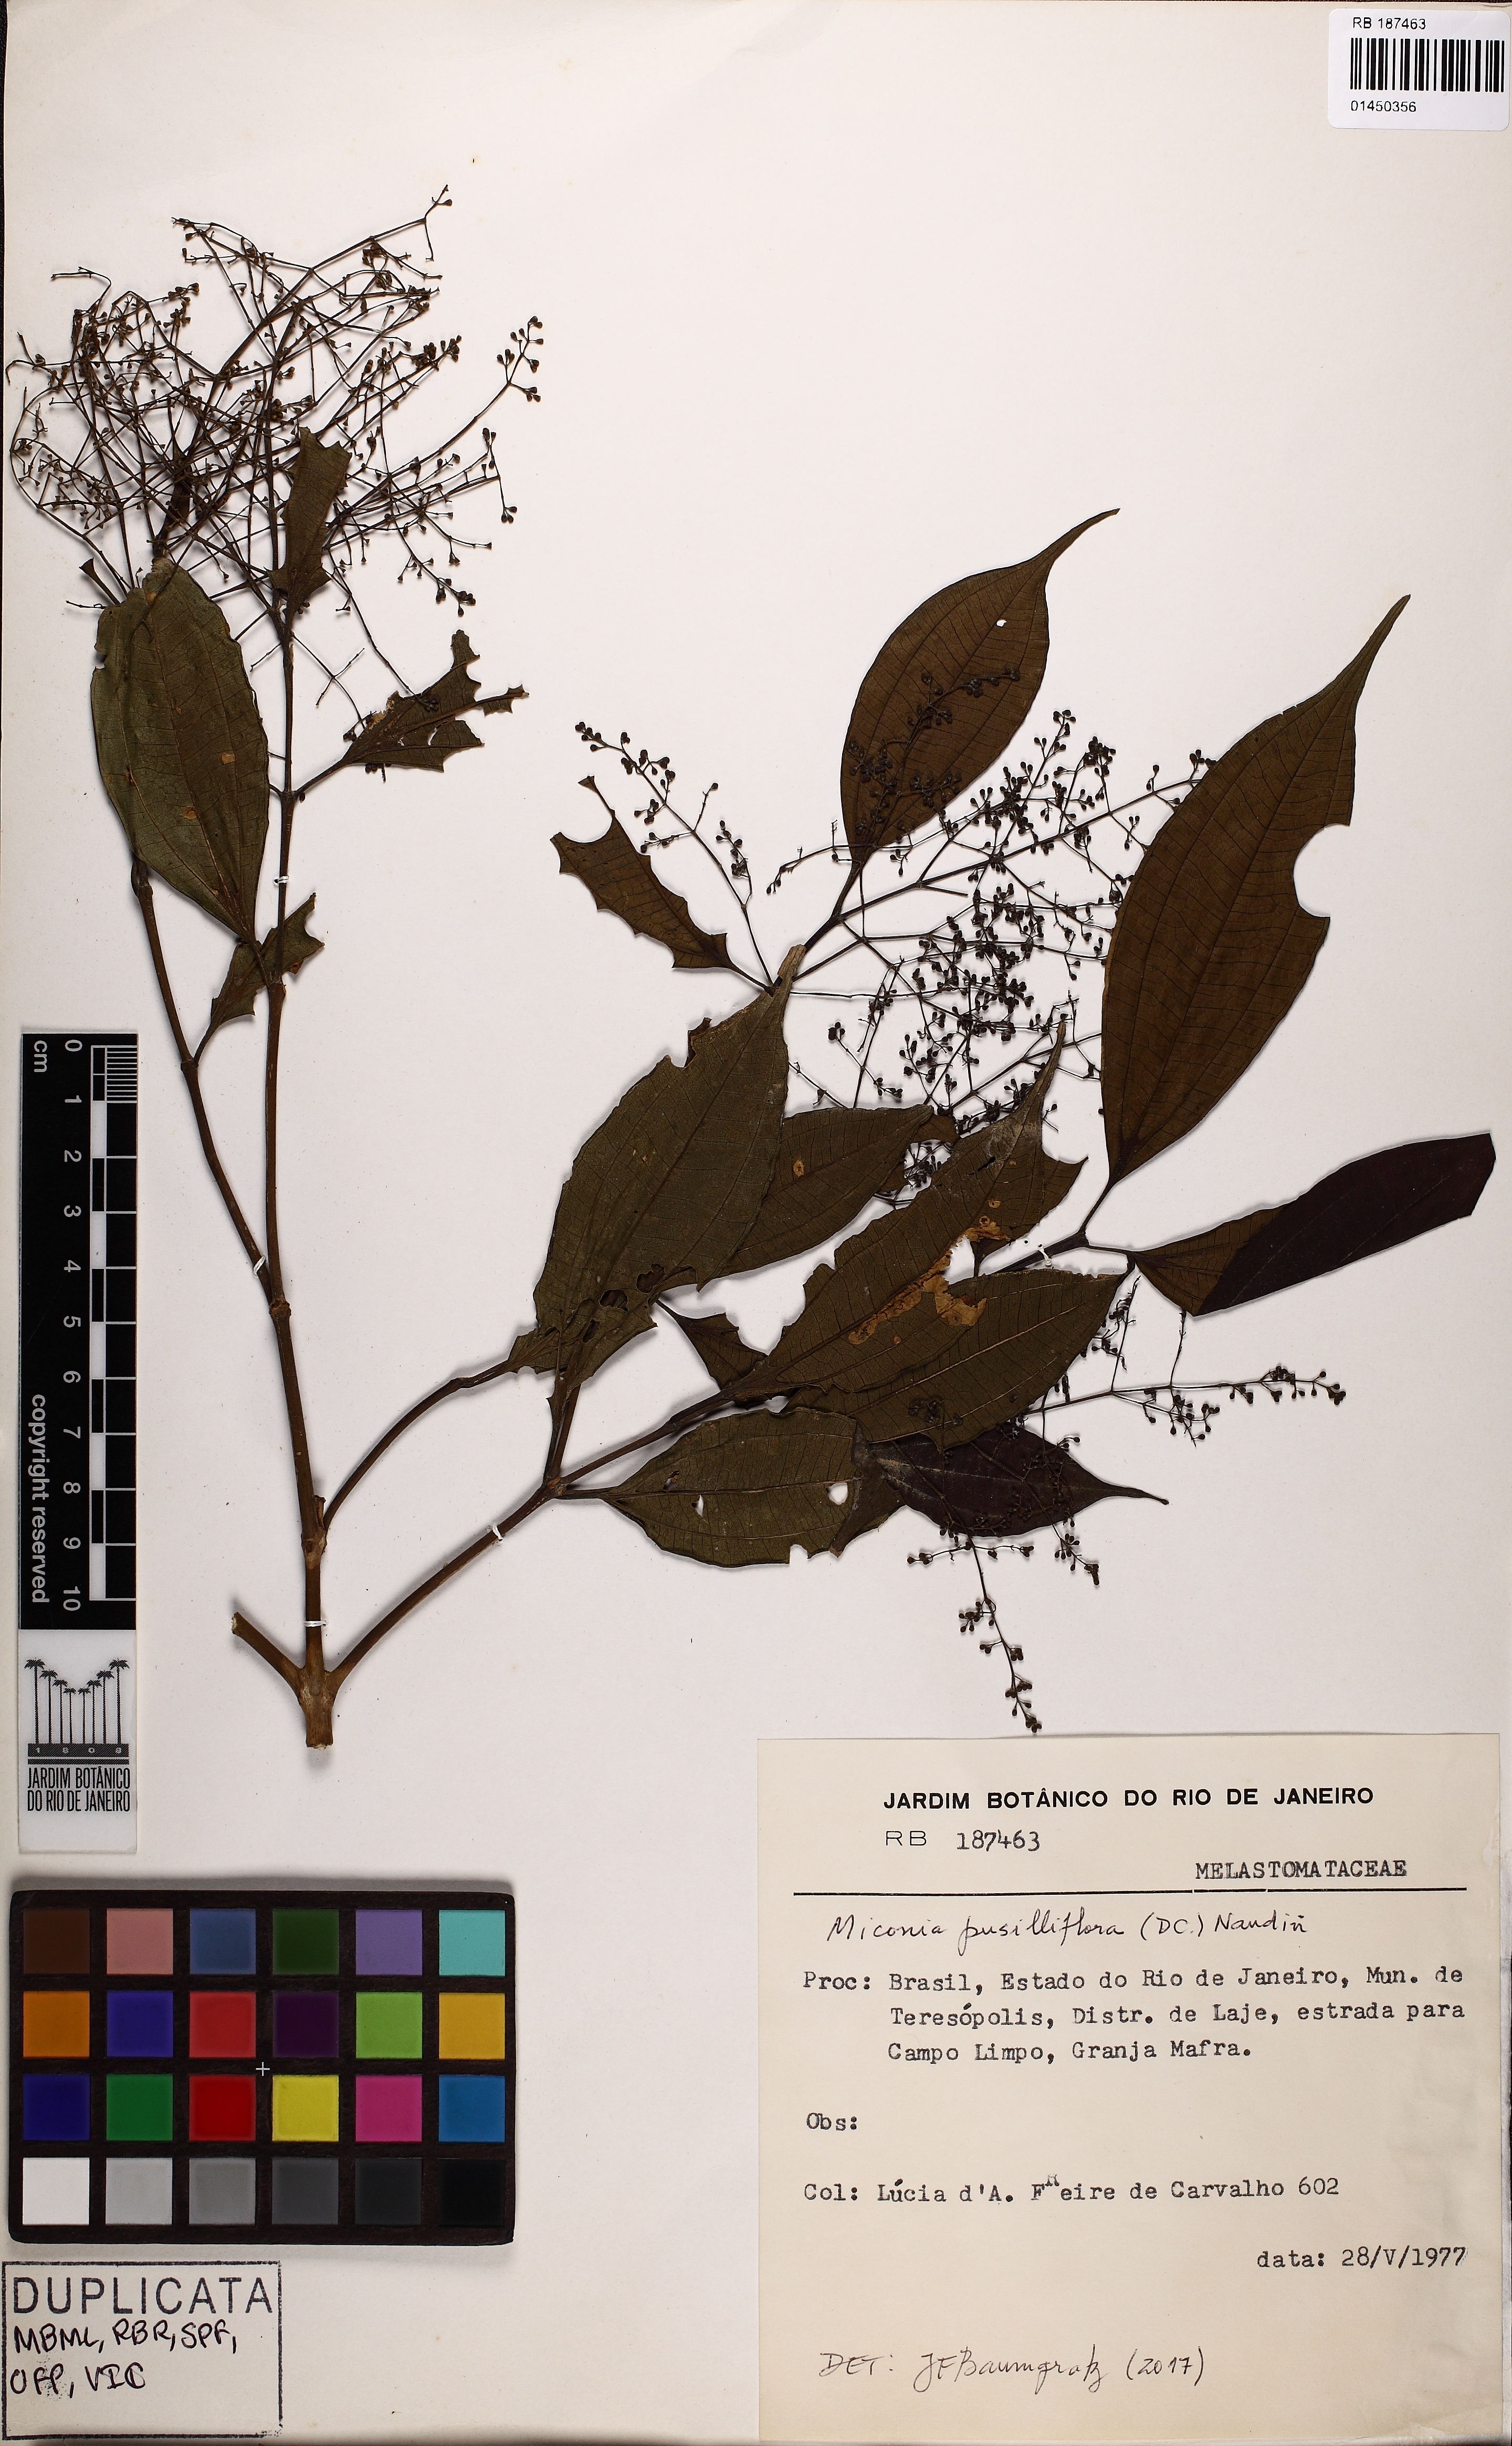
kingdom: Plantae
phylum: Tracheophyta
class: Magnoliopsida
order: Myrtales
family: Melastomataceae
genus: Miconia
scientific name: Miconia pusilliflora
